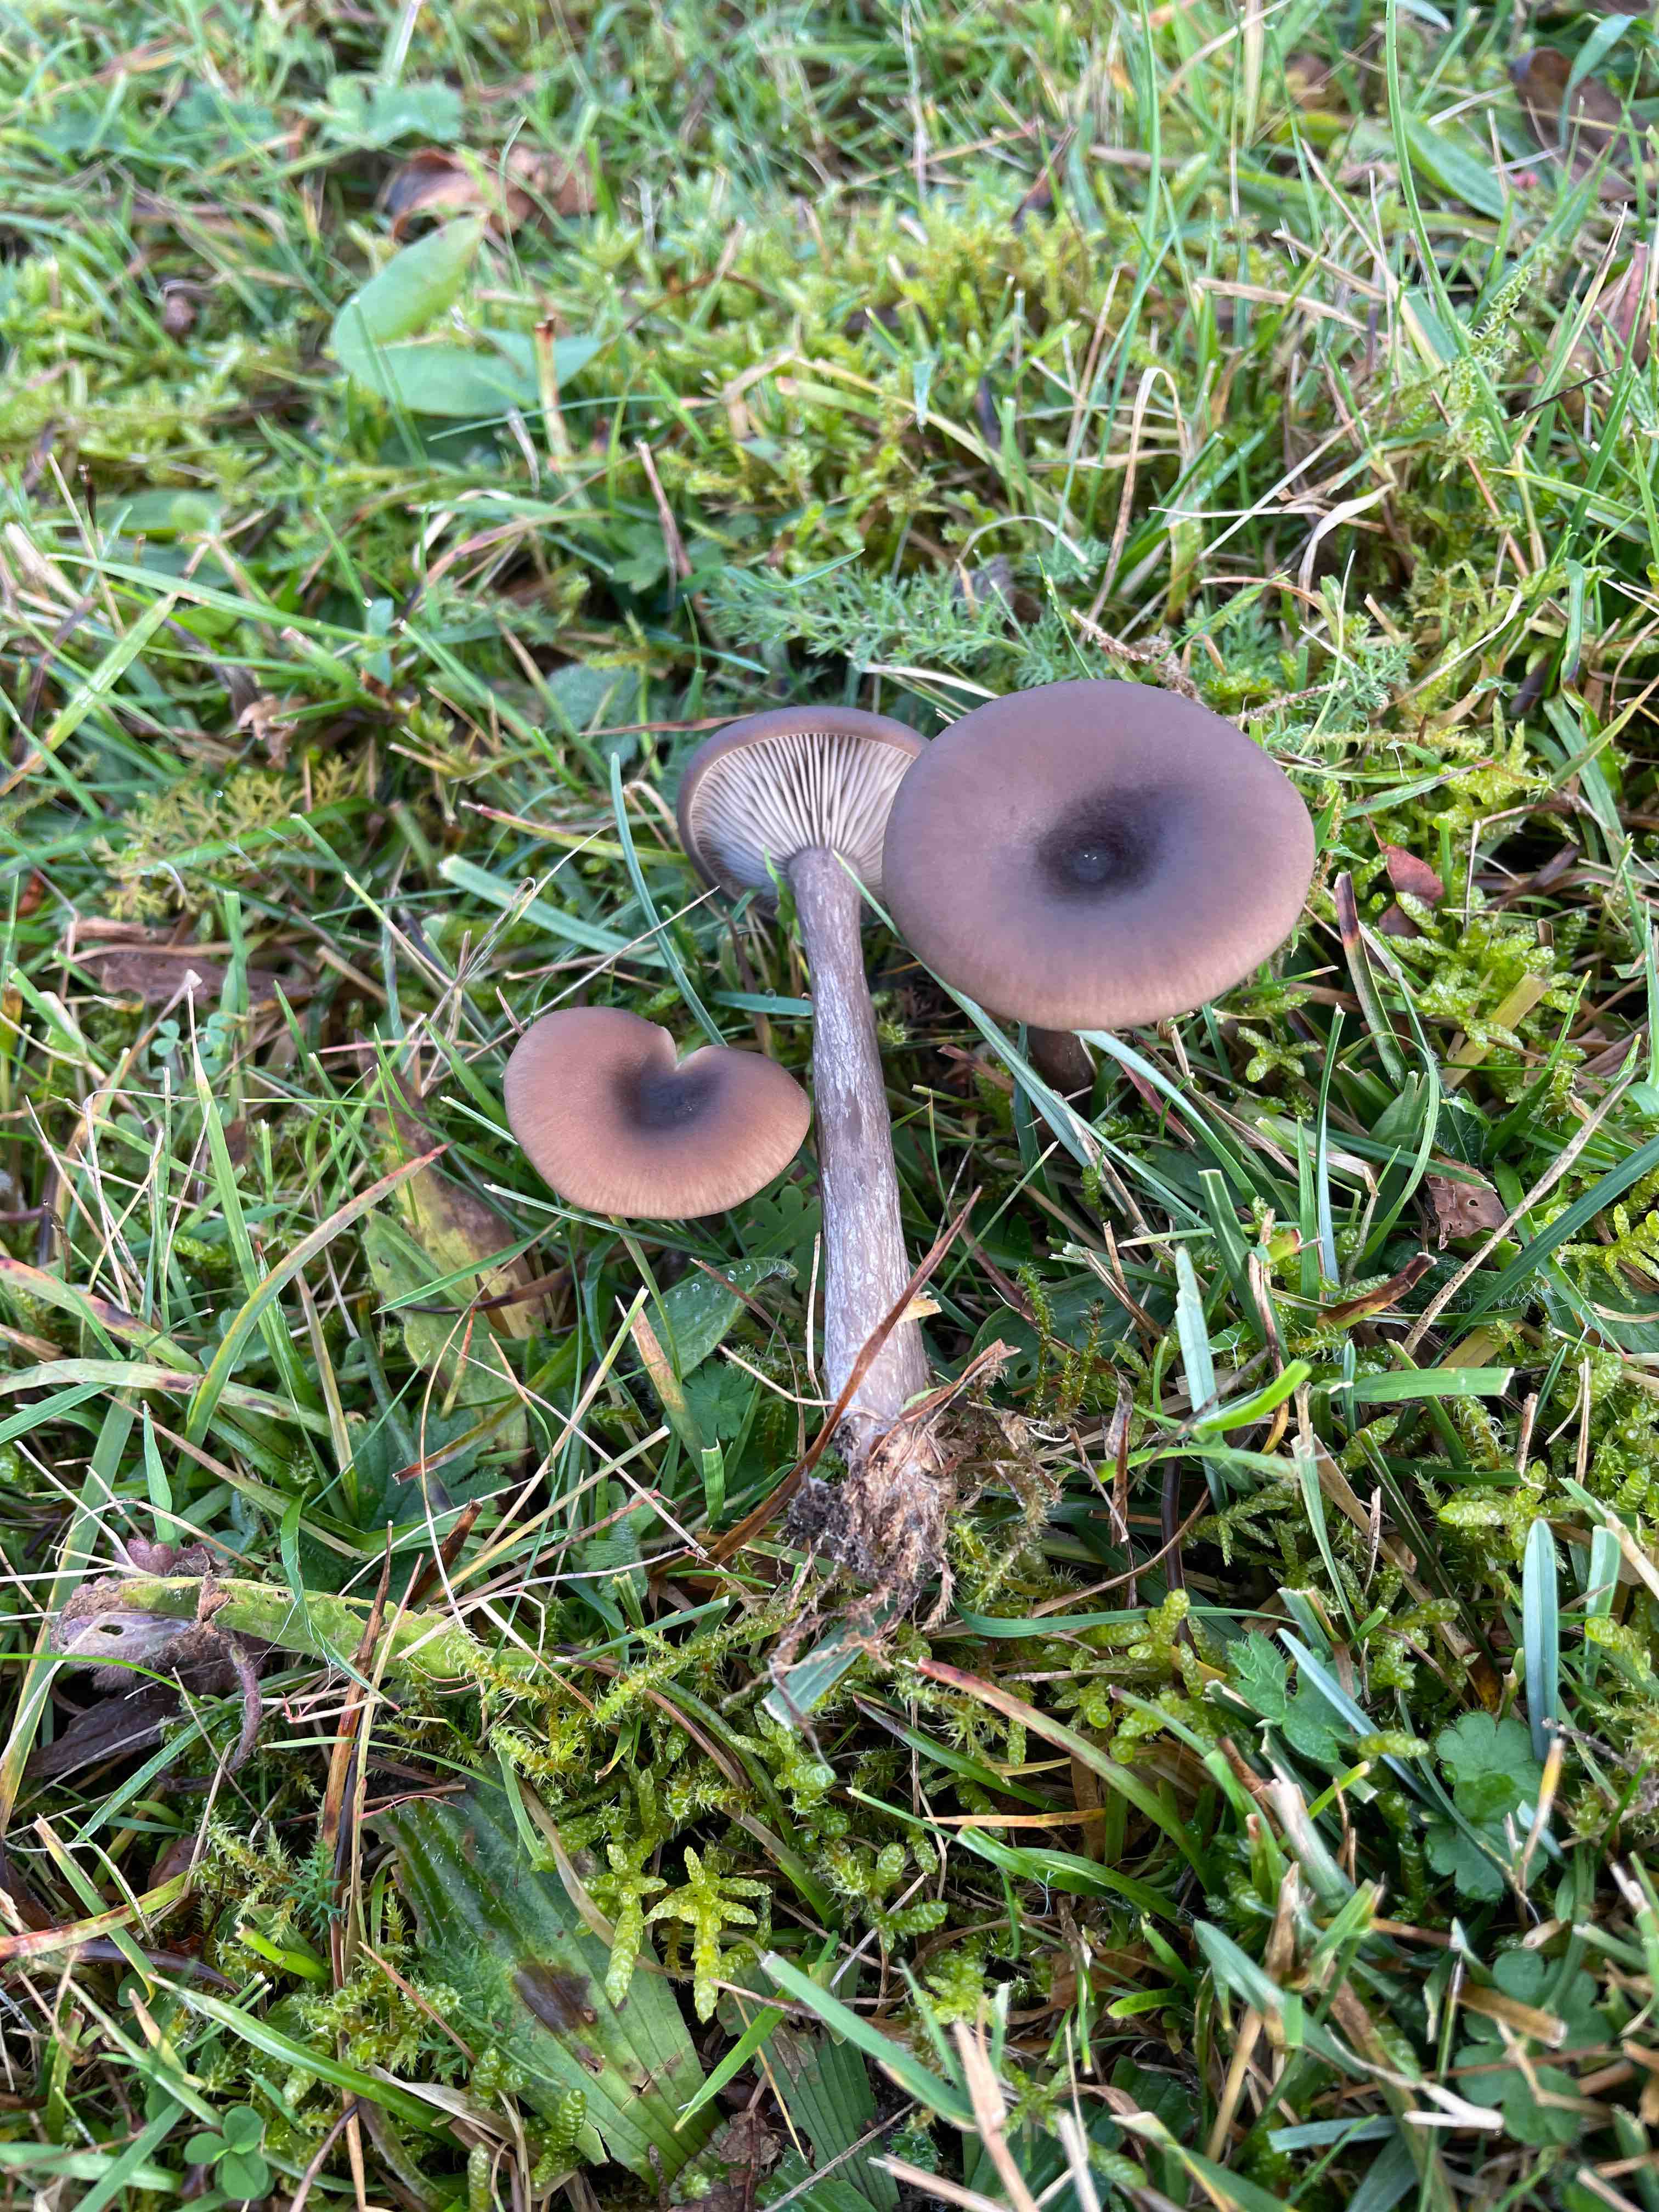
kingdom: Fungi
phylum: Basidiomycota
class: Agaricomycetes
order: Agaricales
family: Pseudoclitocybaceae
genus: Pseudoclitocybe
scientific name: Pseudoclitocybe expallens
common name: lille bægertragthat
